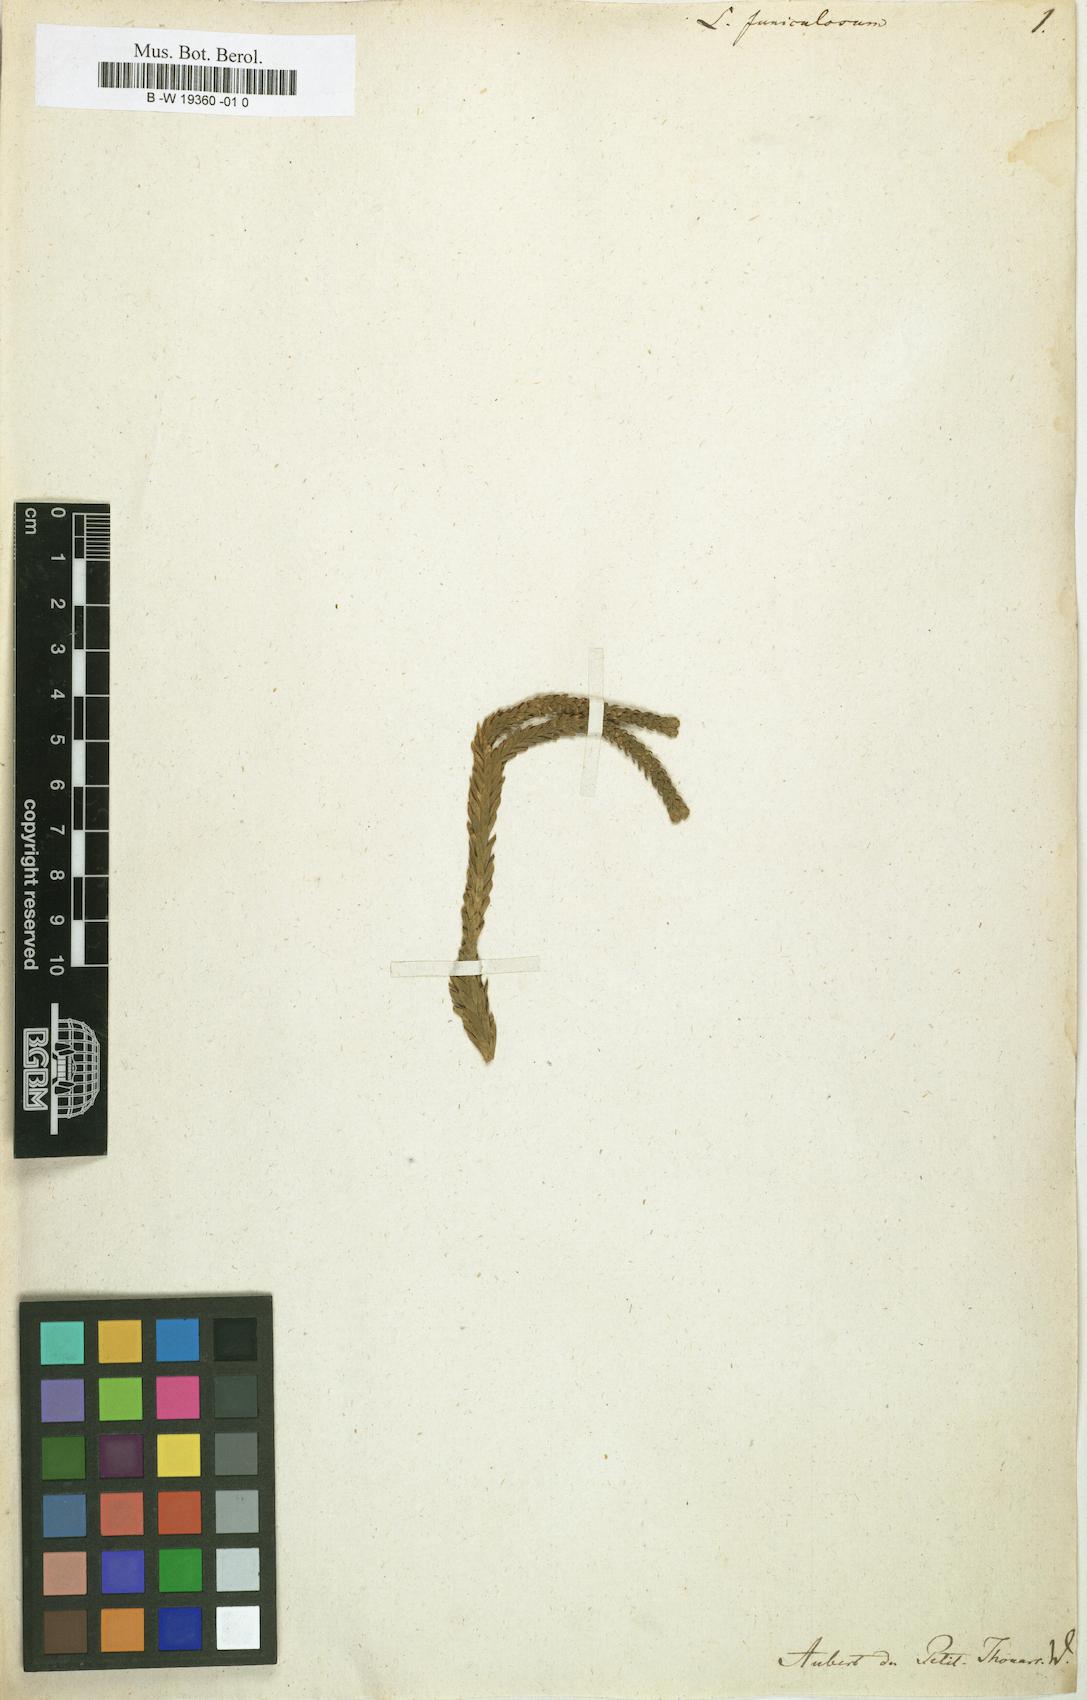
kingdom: Plantae
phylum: Tracheophyta
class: Lycopodiopsida
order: Lycopodiales
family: Lycopodiaceae
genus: Phlegmariurus
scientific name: Phlegmariurus gnidioides
